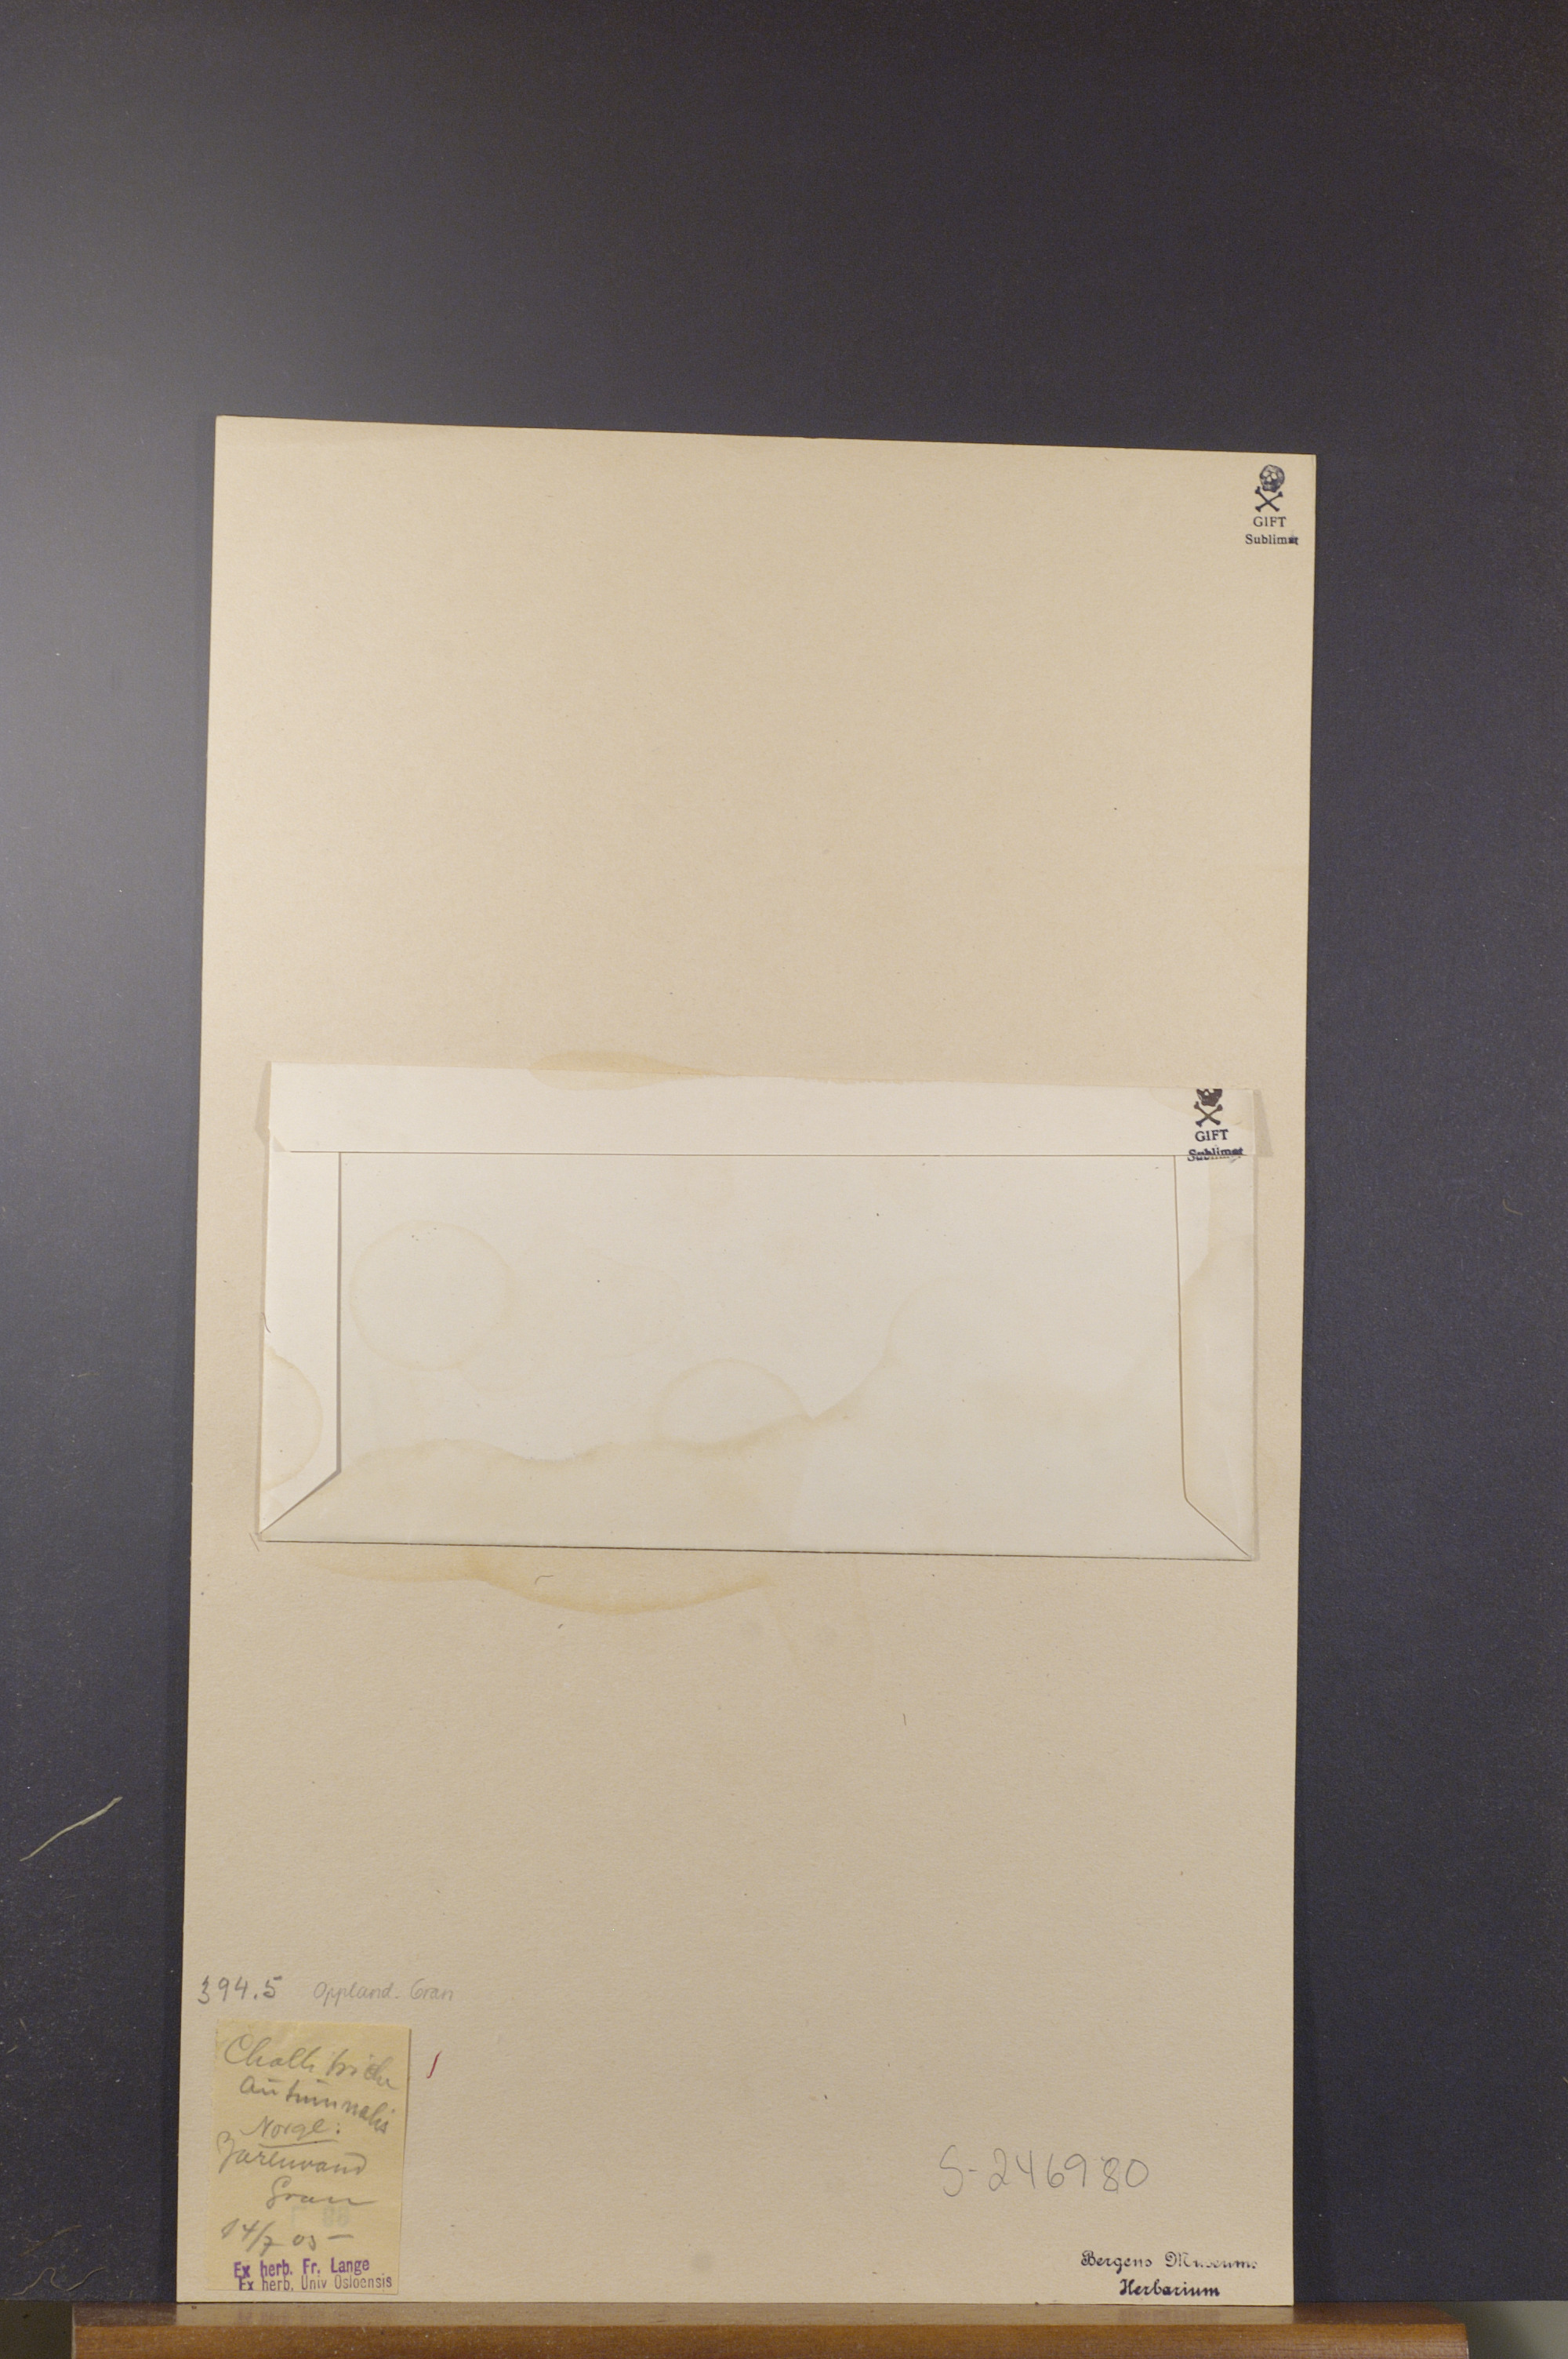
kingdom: Plantae
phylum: Tracheophyta
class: Magnoliopsida
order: Lamiales
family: Plantaginaceae
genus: Callitriche
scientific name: Callitriche hermaphroditica
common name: Autumnal water-starwort
